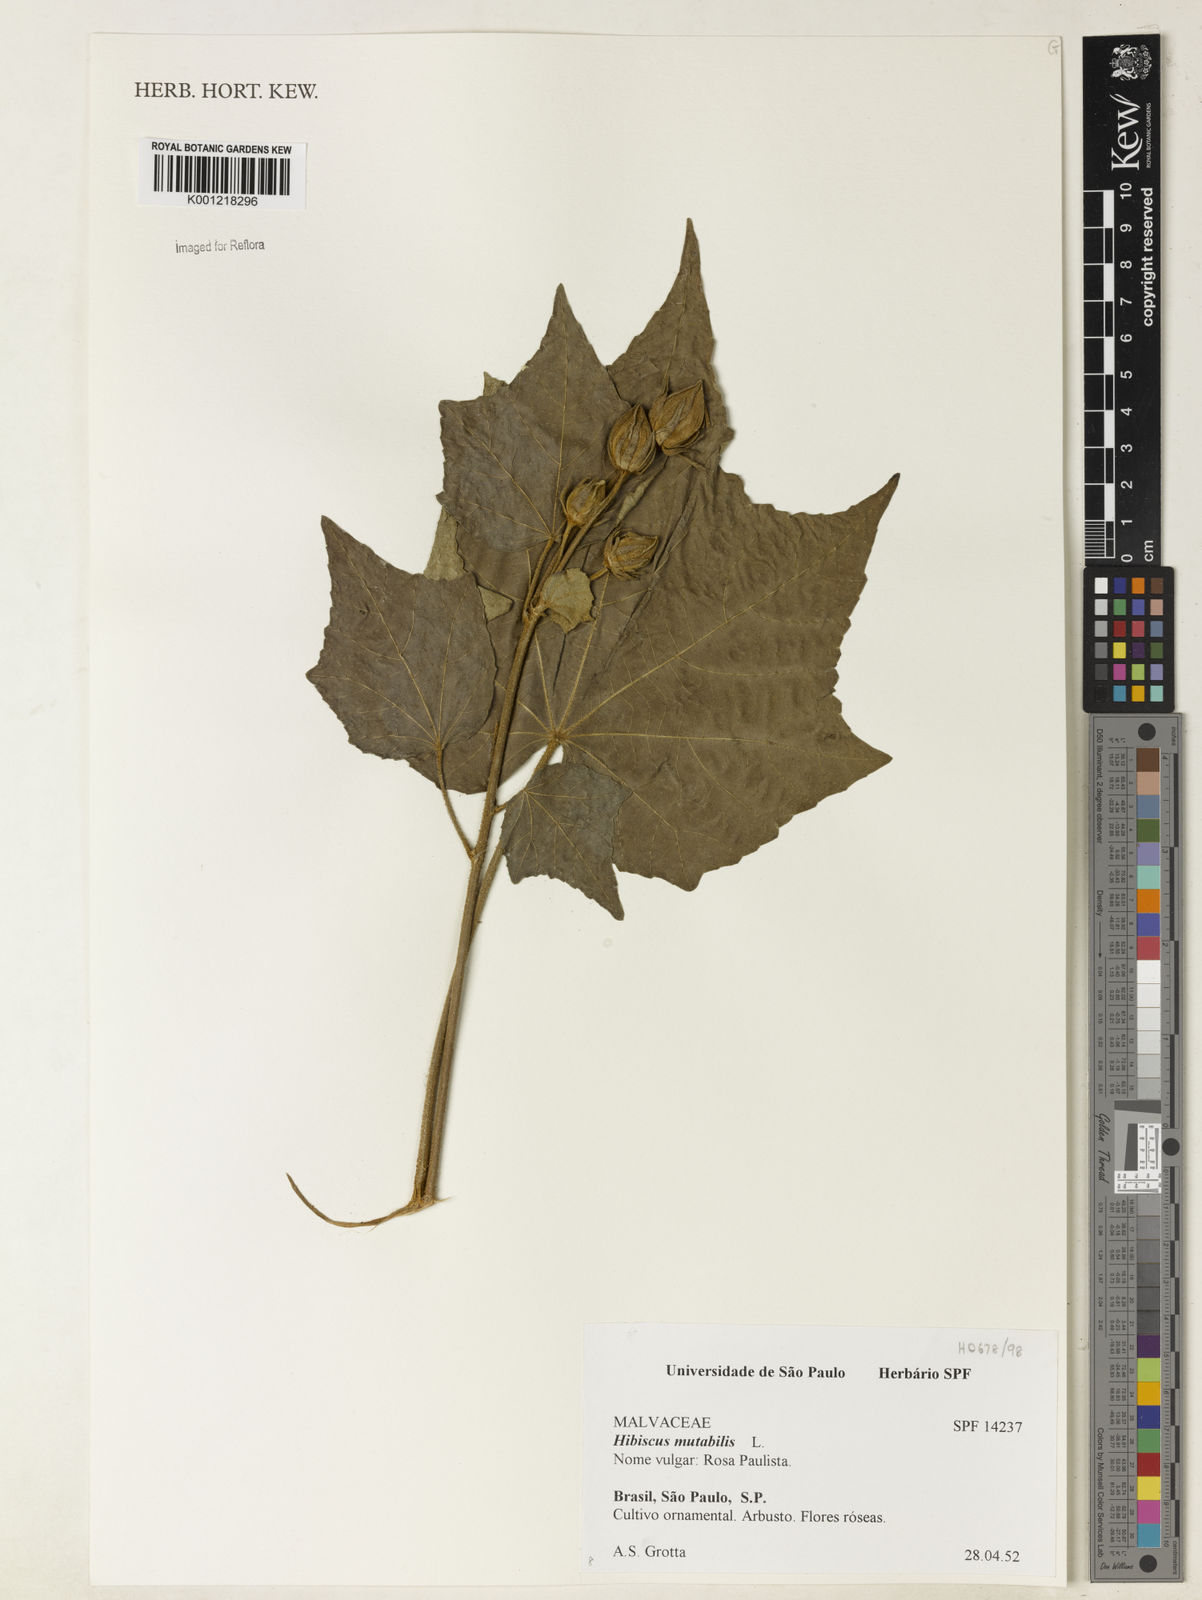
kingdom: Plantae
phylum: Tracheophyta
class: Magnoliopsida
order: Malvales
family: Malvaceae
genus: Hibiscus
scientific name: Hibiscus mutabilis
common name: Dixie rosemallow
